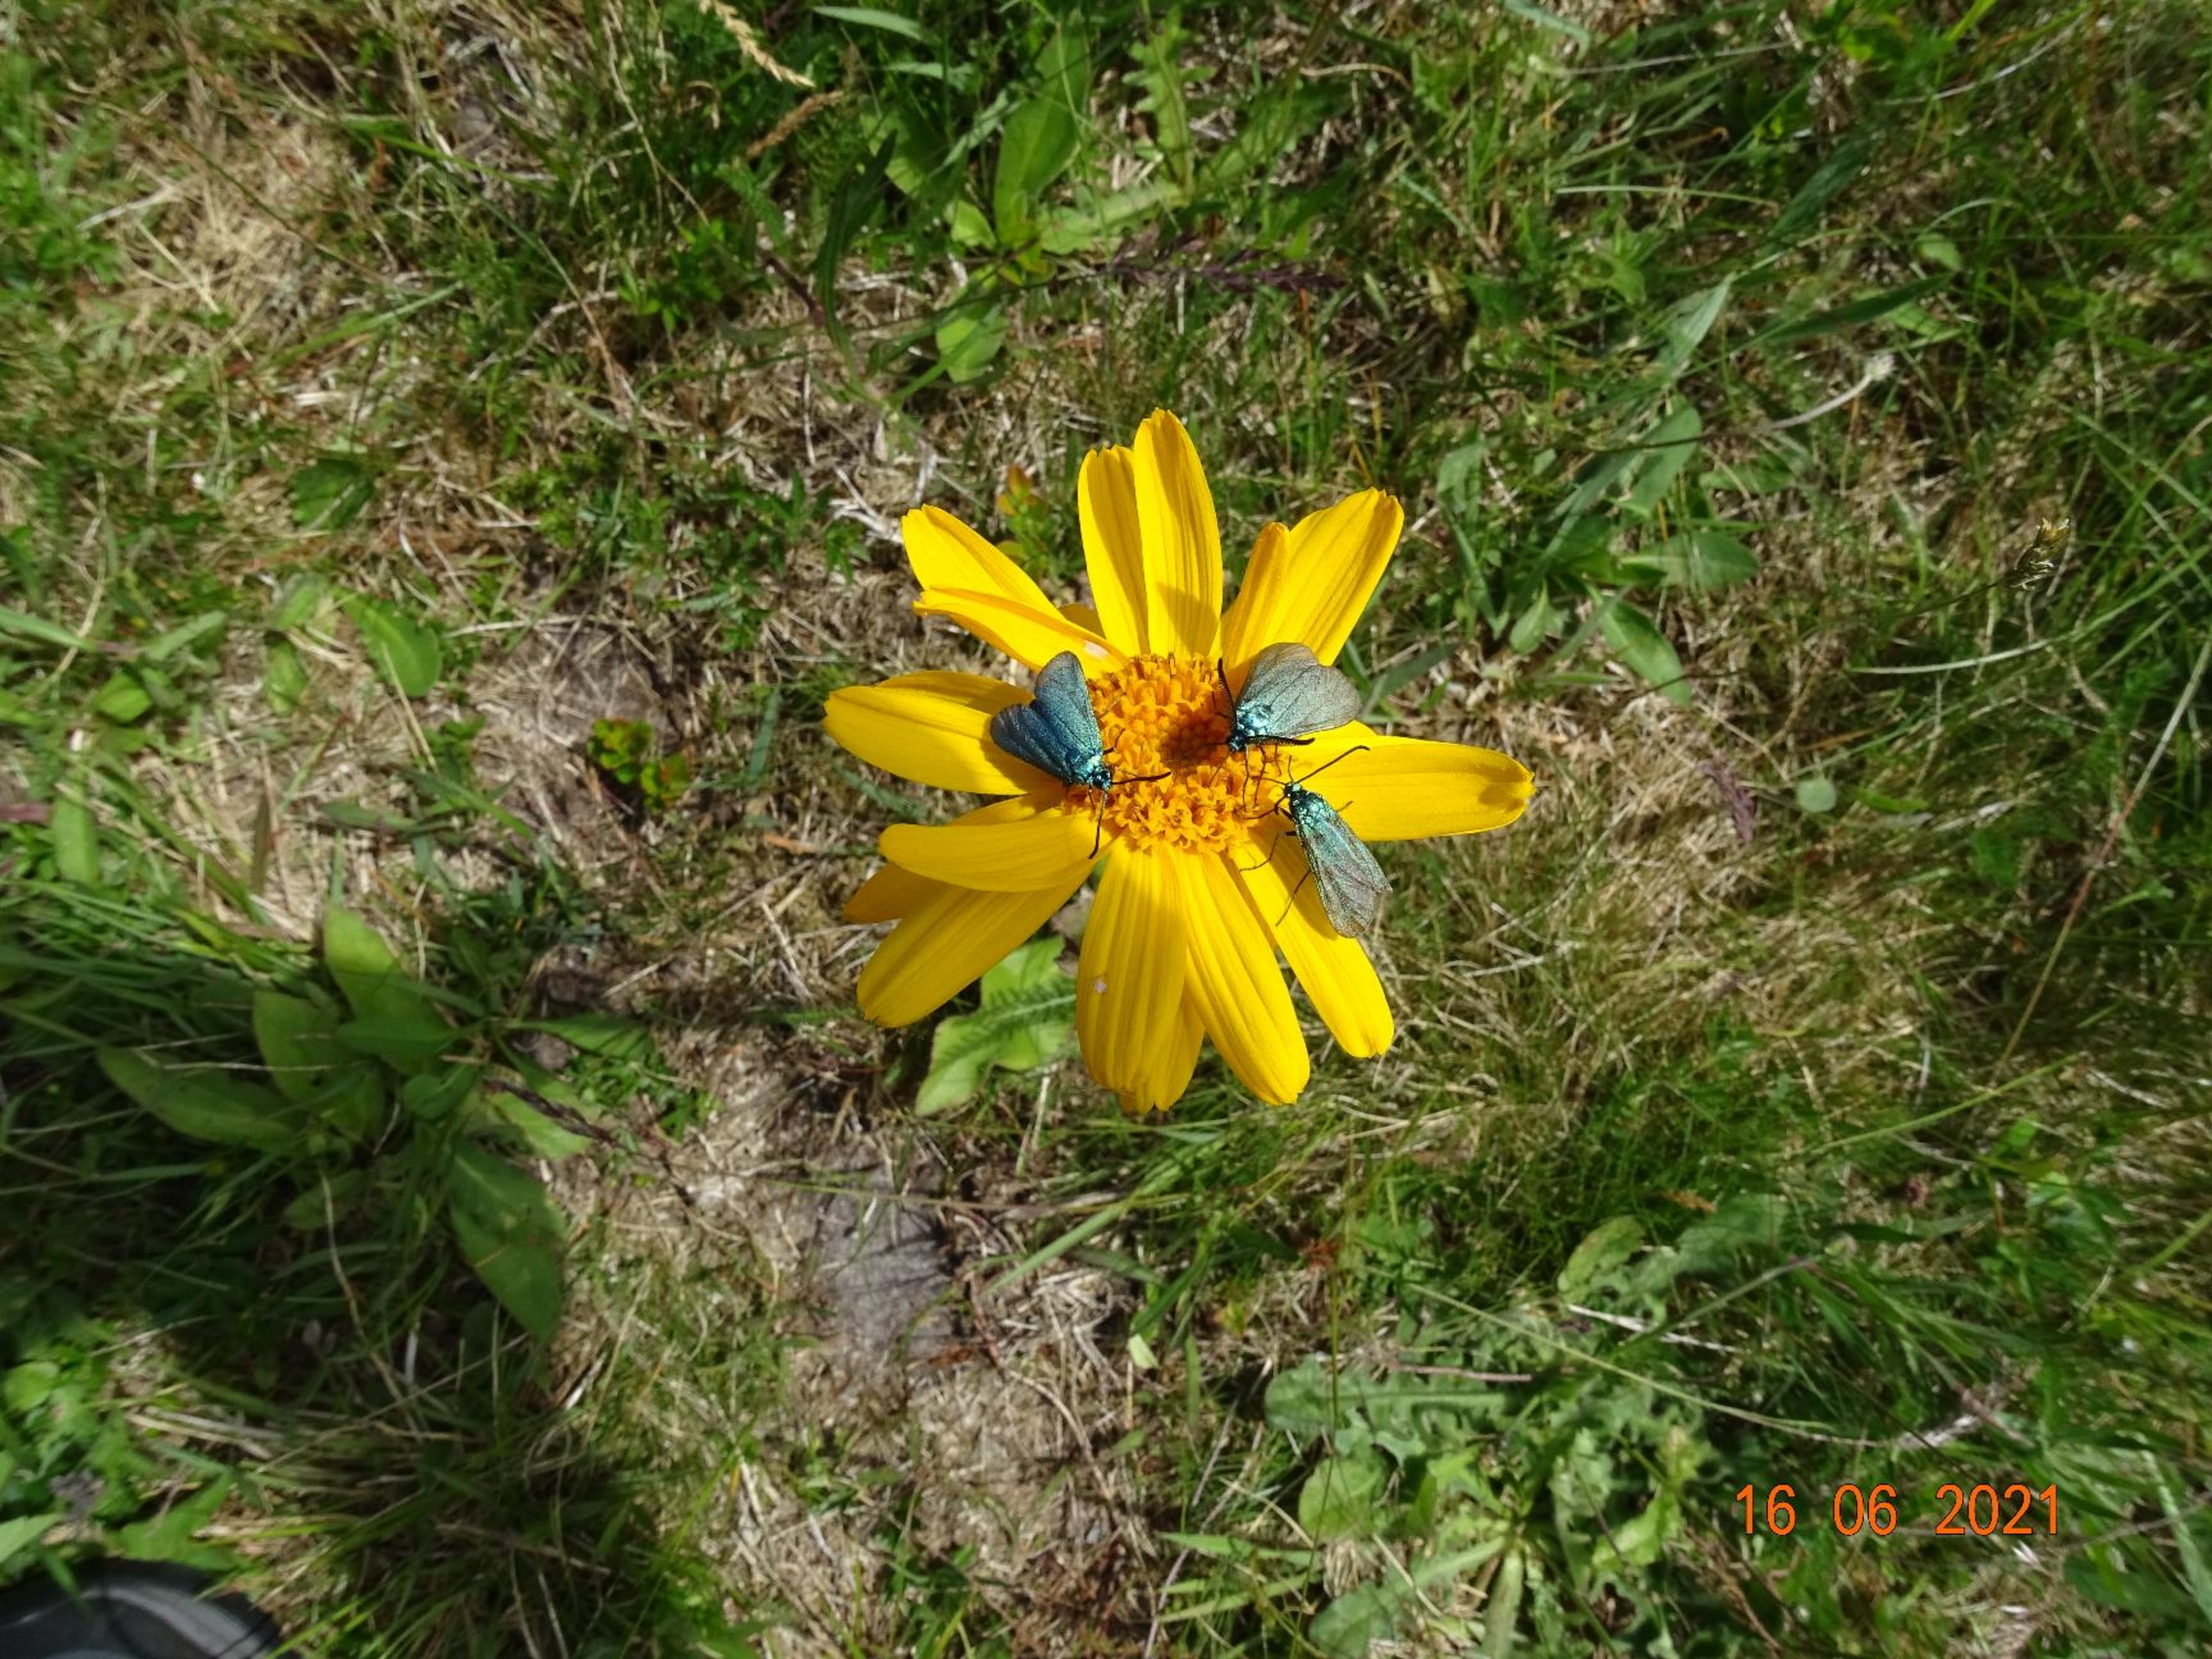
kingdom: Plantae
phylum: Tracheophyta
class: Magnoliopsida
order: Asterales
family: Asteraceae
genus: Arnica
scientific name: Arnica montana
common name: Guldblomme
